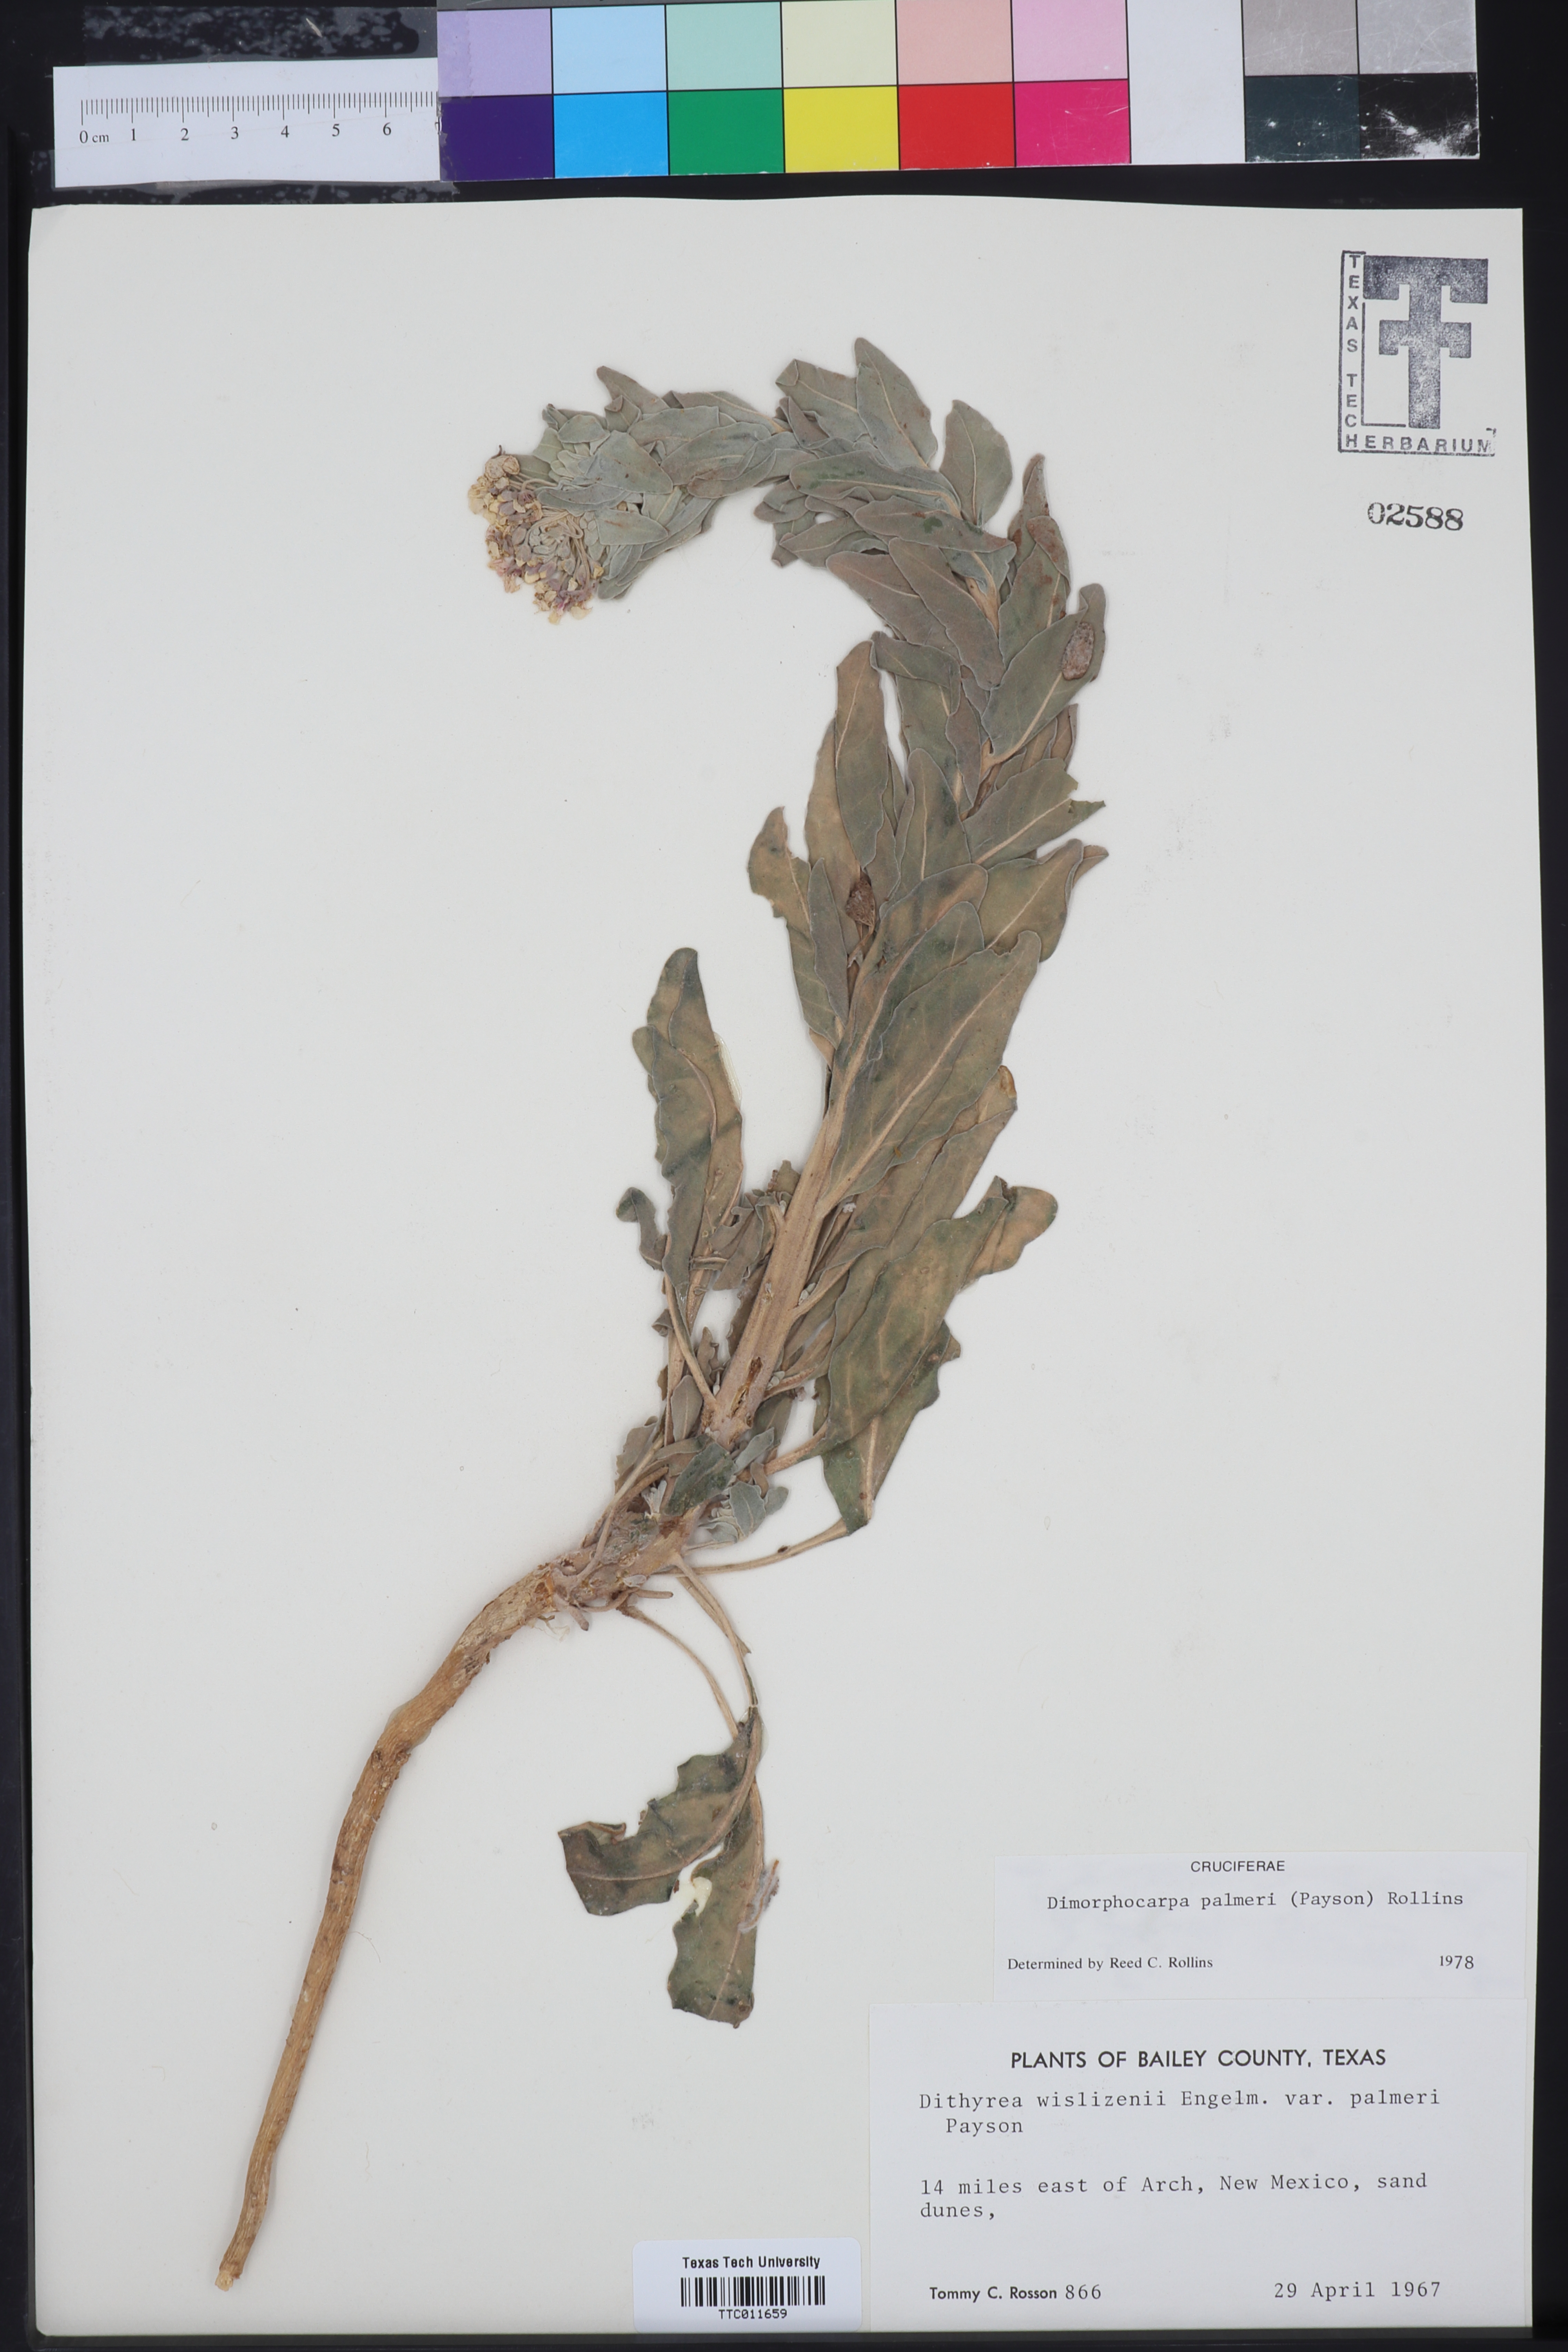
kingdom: Plantae
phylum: Tracheophyta
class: Magnoliopsida
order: Brassicales
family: Brassicaceae
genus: Dimorphocarpa
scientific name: Dimorphocarpa candicans
